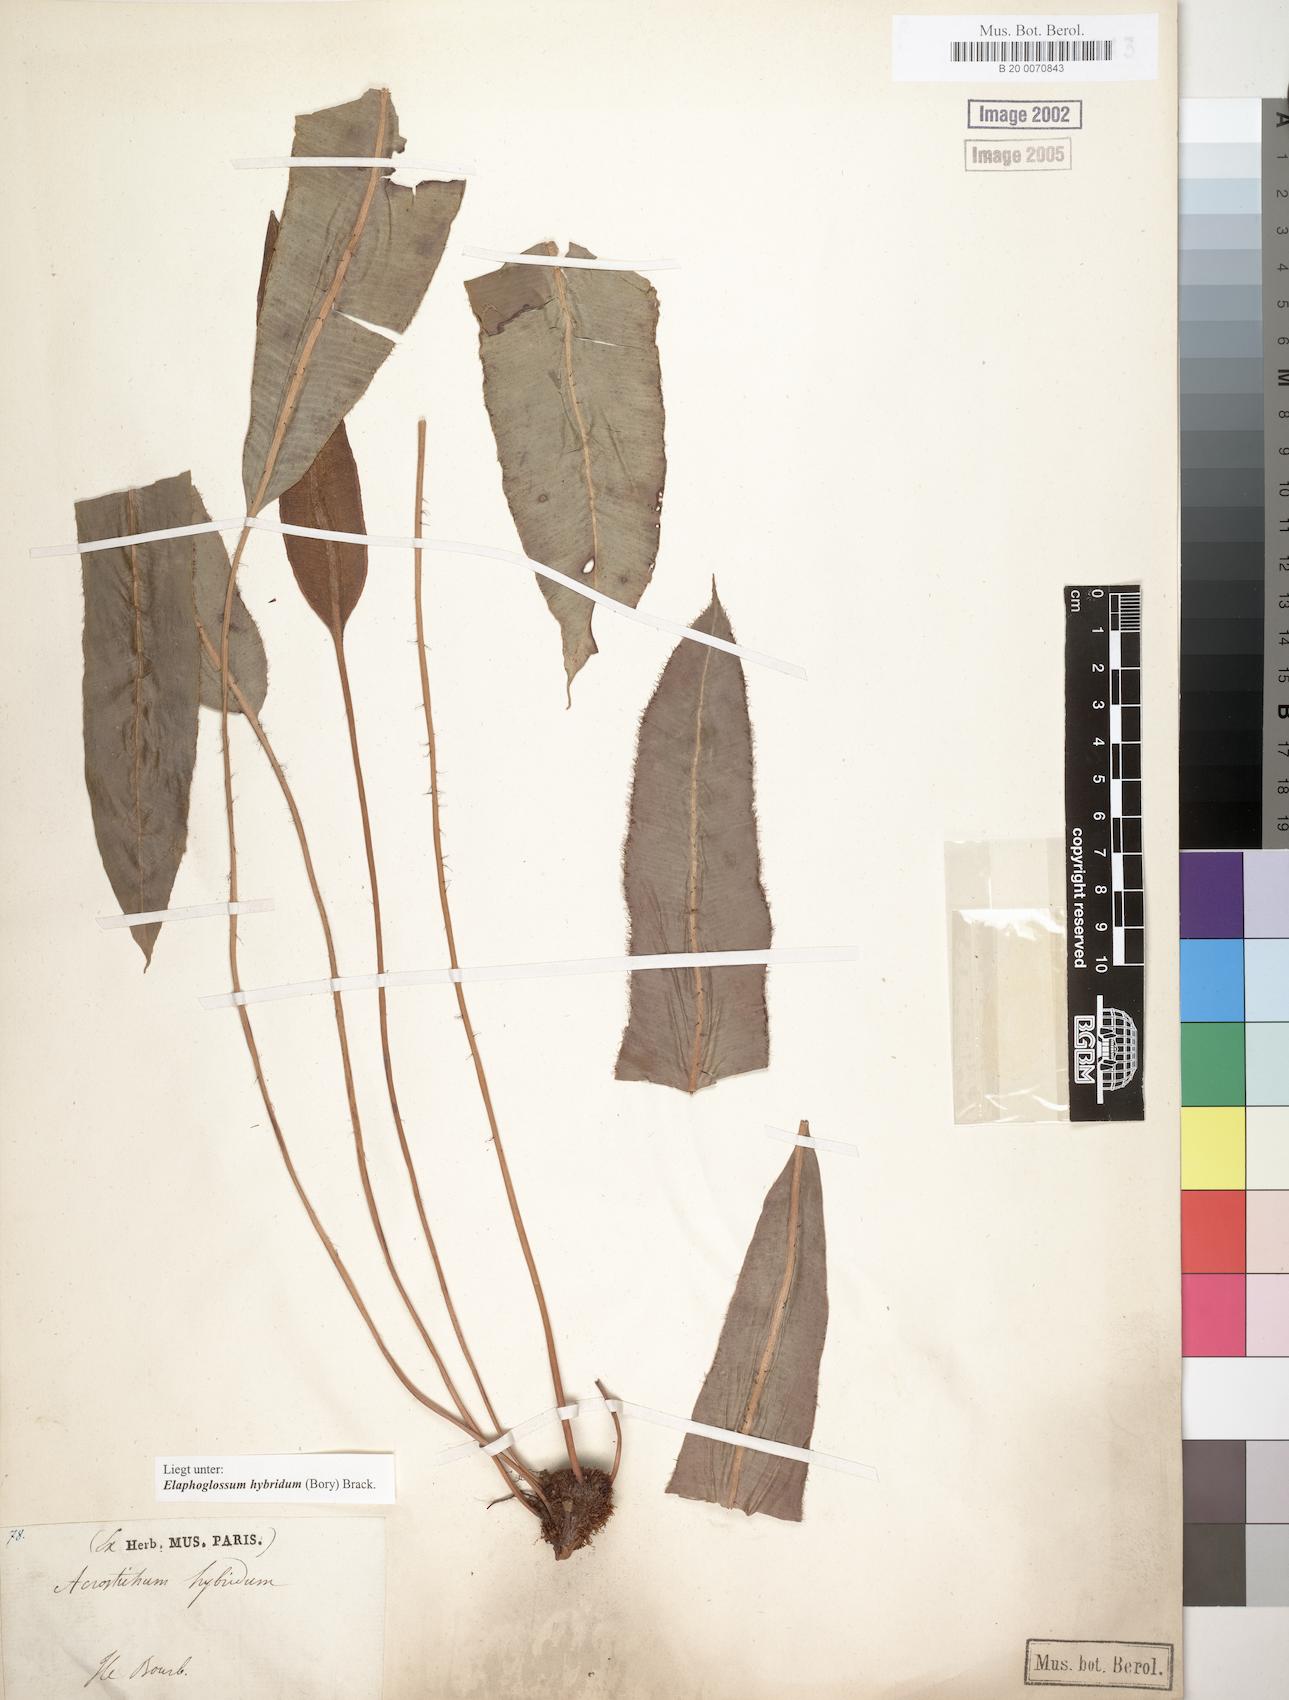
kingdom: Plantae
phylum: Tracheophyta
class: Polypodiopsida
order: Polypodiales
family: Dryopteridaceae
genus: Elaphoglossum
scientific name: Elaphoglossum hybridum
